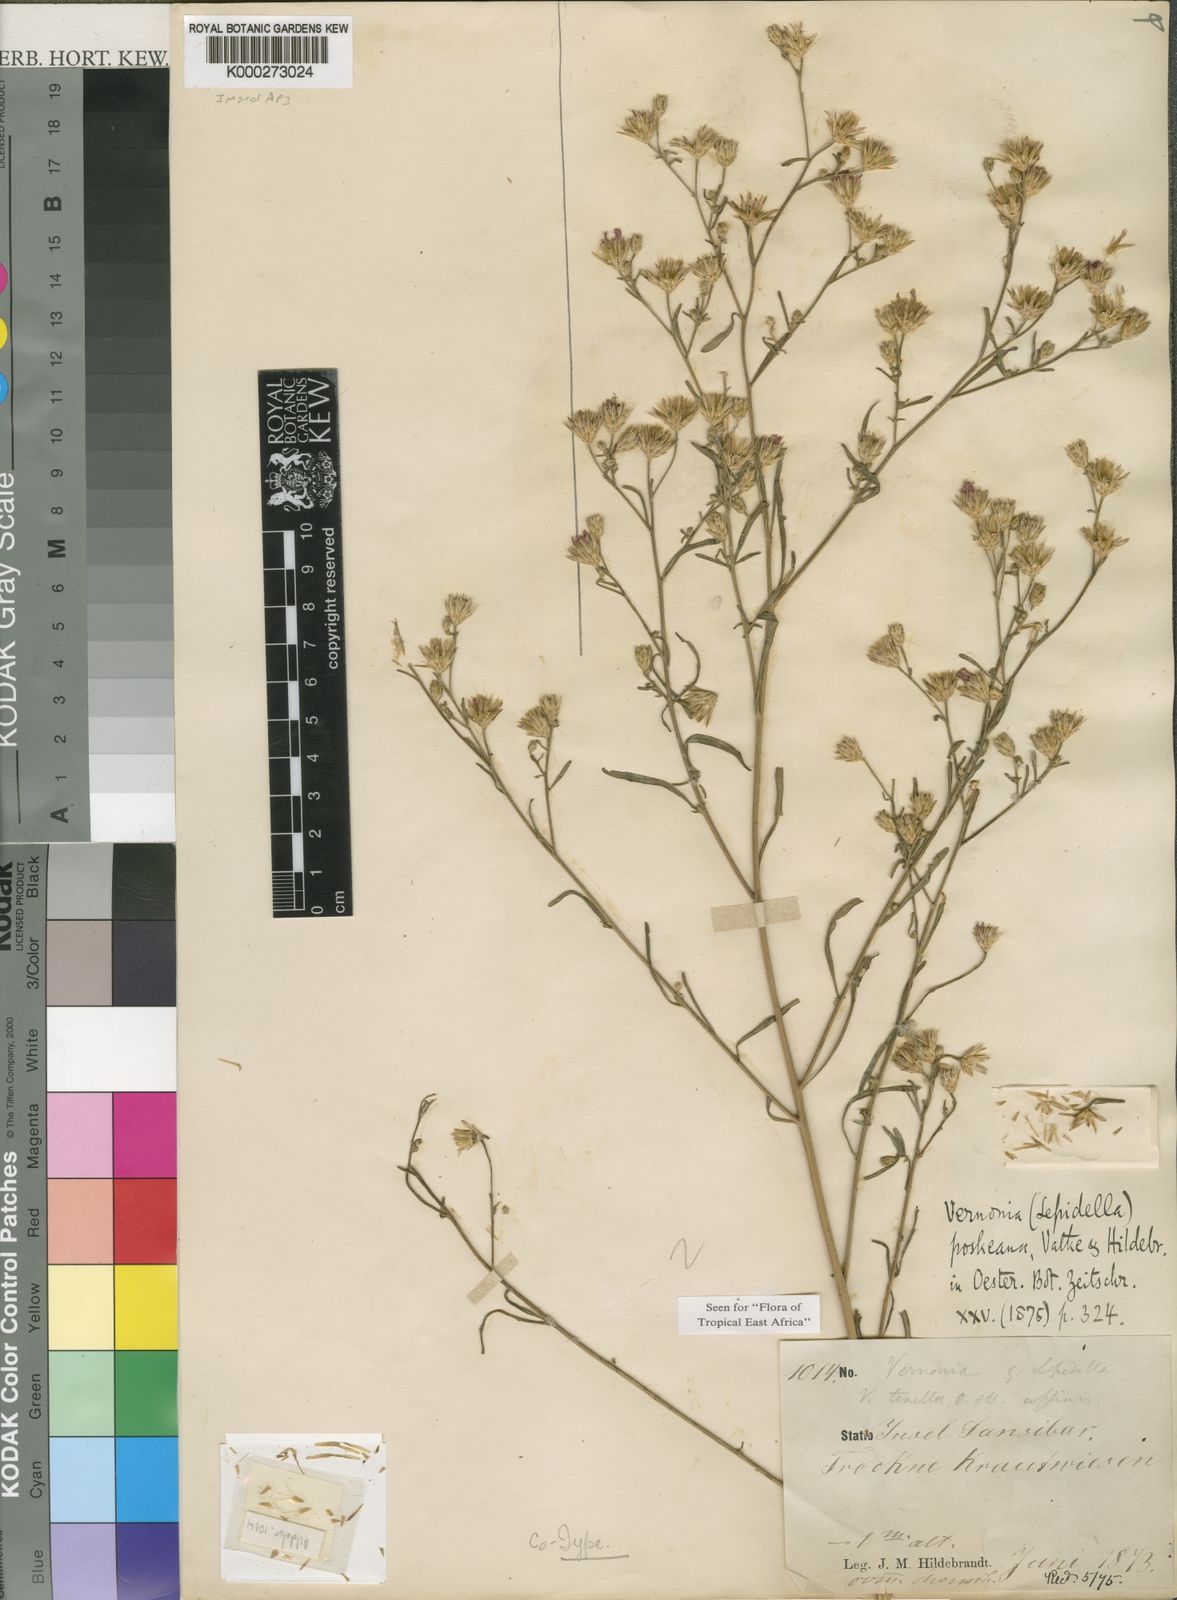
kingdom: Plantae
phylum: Tracheophyta
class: Magnoliopsida
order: Asterales
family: Asteraceae
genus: Crystallopollen
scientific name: Crystallopollen angustifolium
